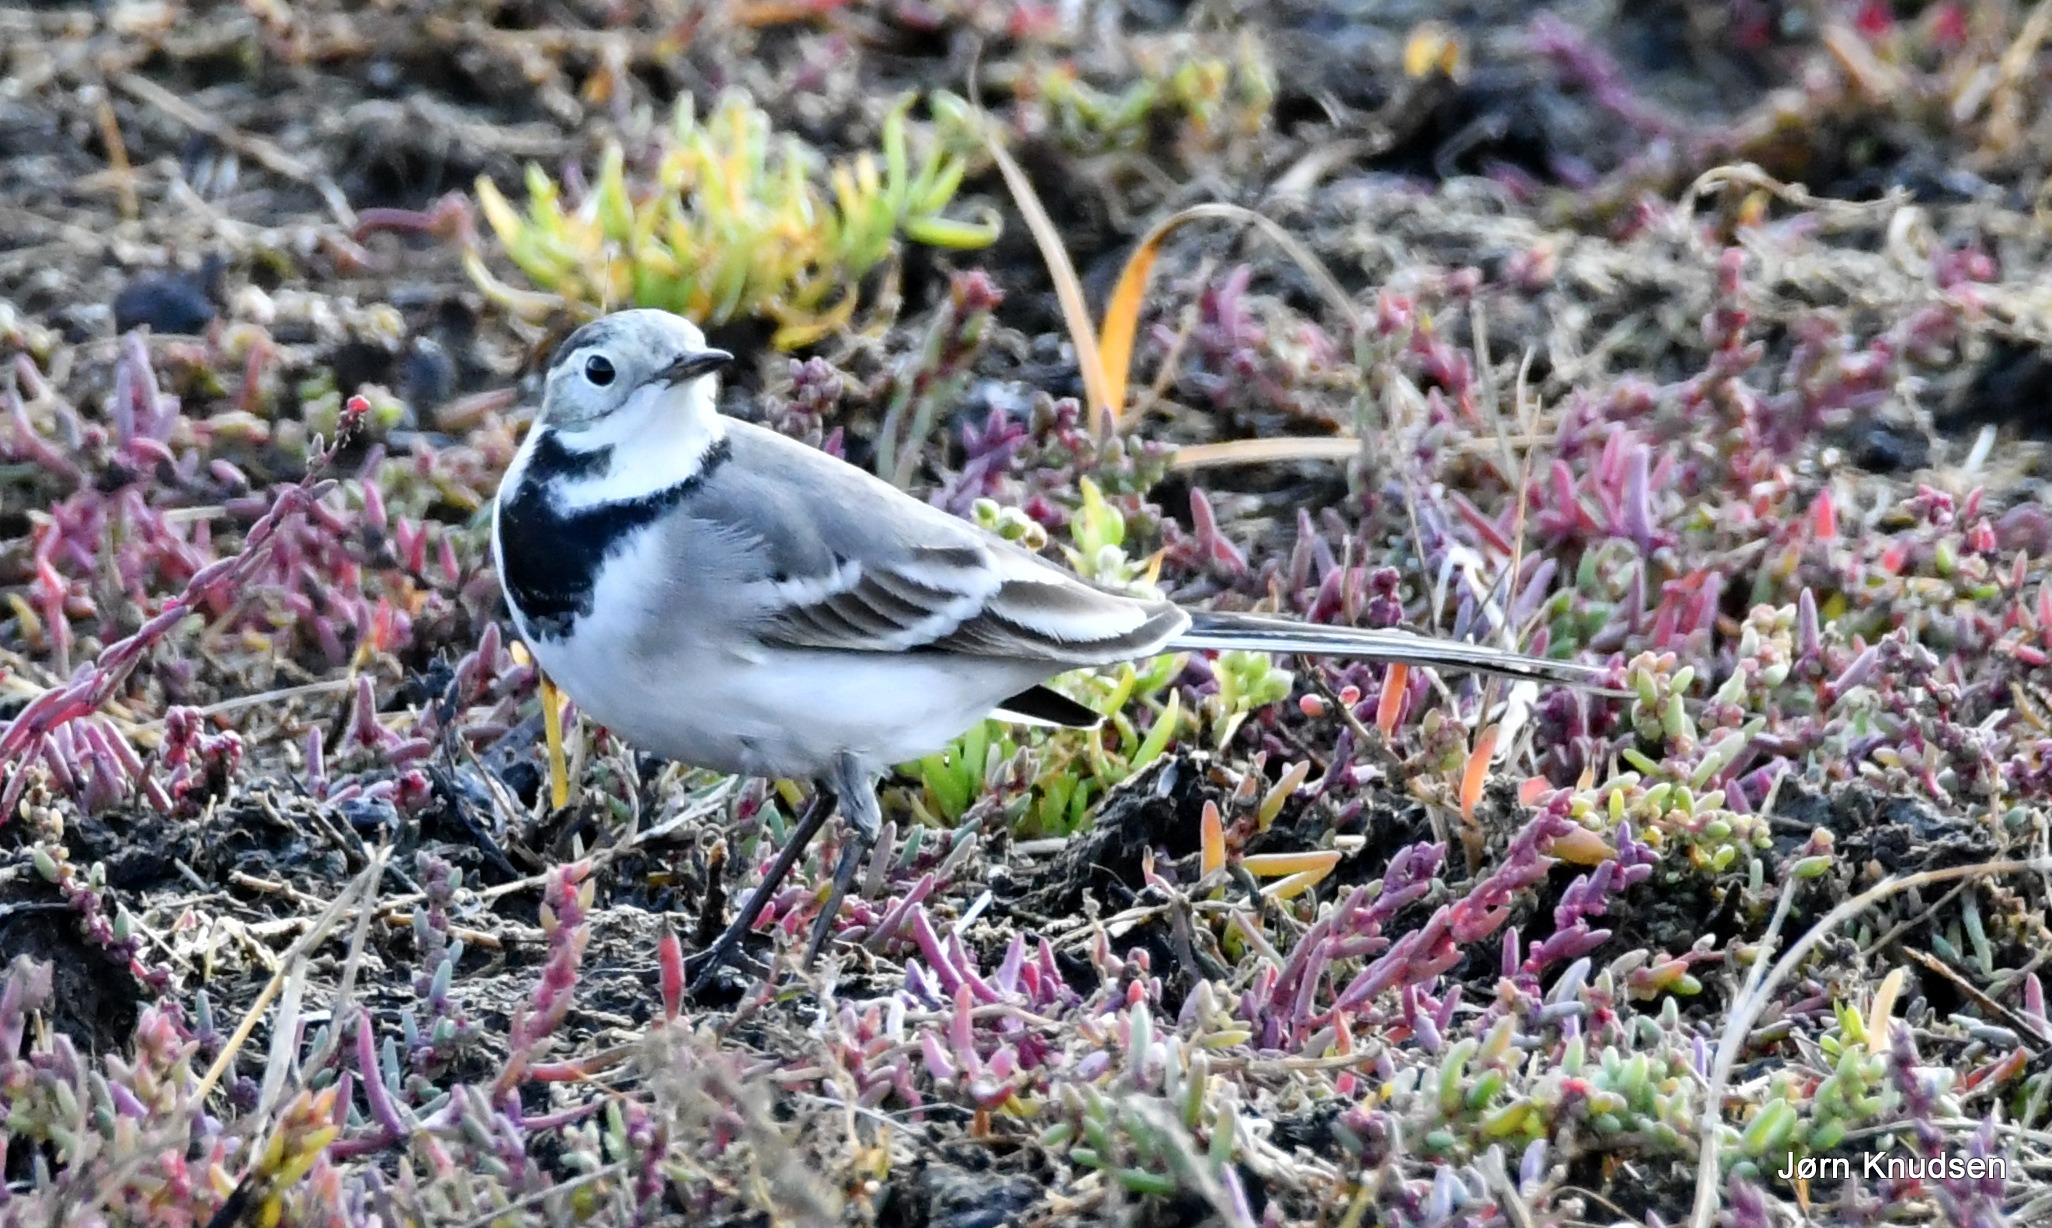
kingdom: Animalia
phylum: Chordata
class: Aves
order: Passeriformes
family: Motacillidae
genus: Motacilla
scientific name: Motacilla alba
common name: Hvid vipstjert
